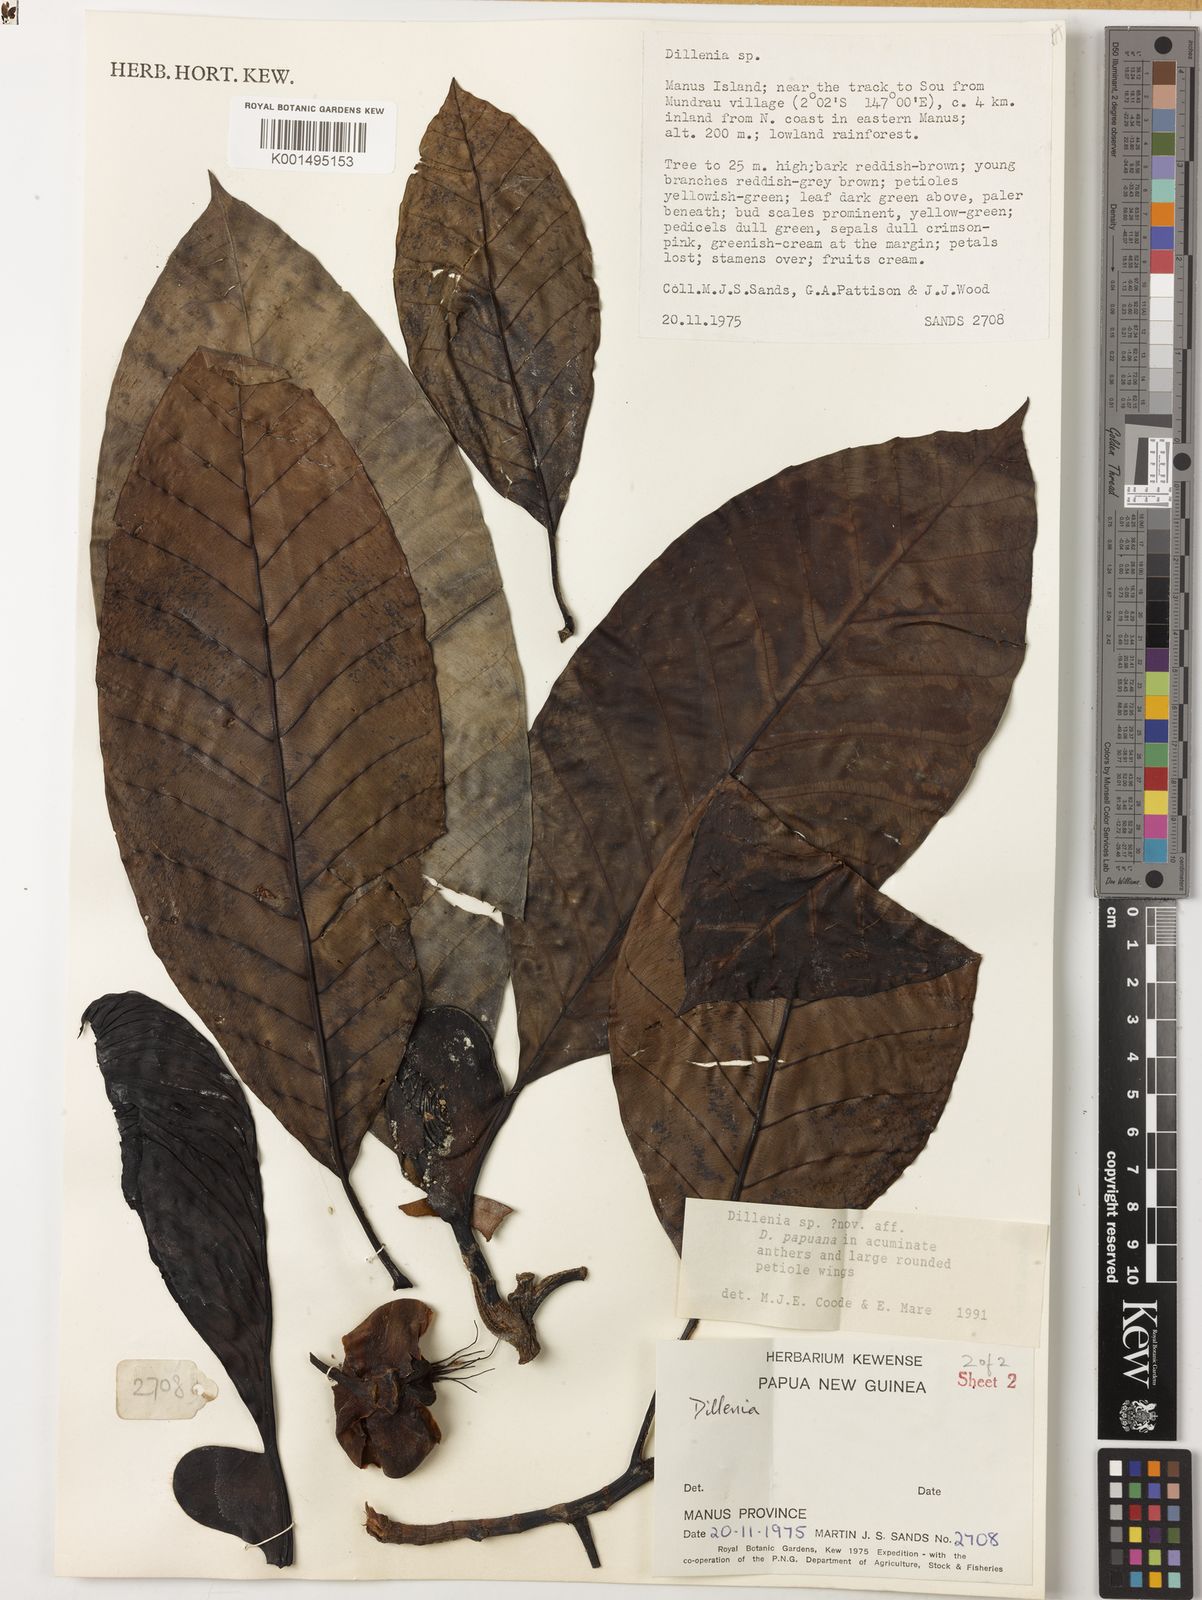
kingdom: Plantae
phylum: Tracheophyta
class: Magnoliopsida
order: Dilleniales
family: Dilleniaceae
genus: Dillenia
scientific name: Dillenia
